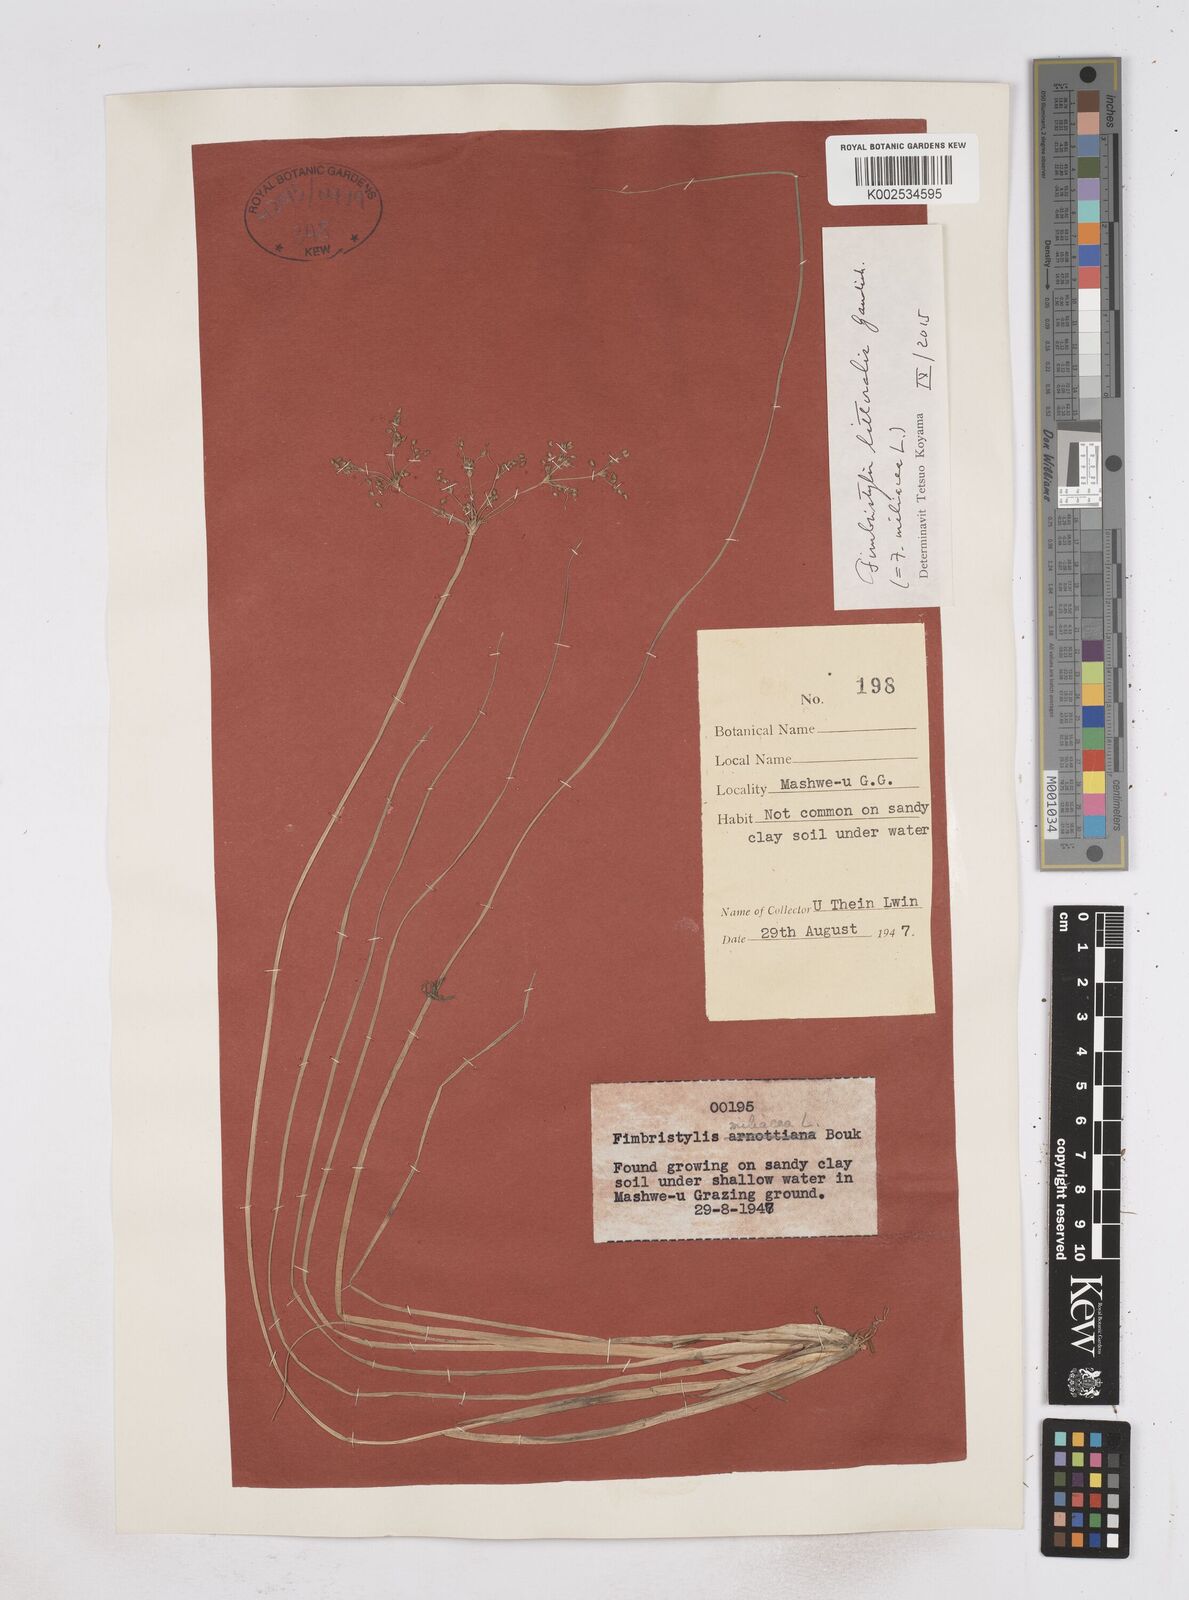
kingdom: Plantae
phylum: Tracheophyta
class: Liliopsida
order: Poales
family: Cyperaceae
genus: Fimbristylis
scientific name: Fimbristylis littoralis
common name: Fimbry
